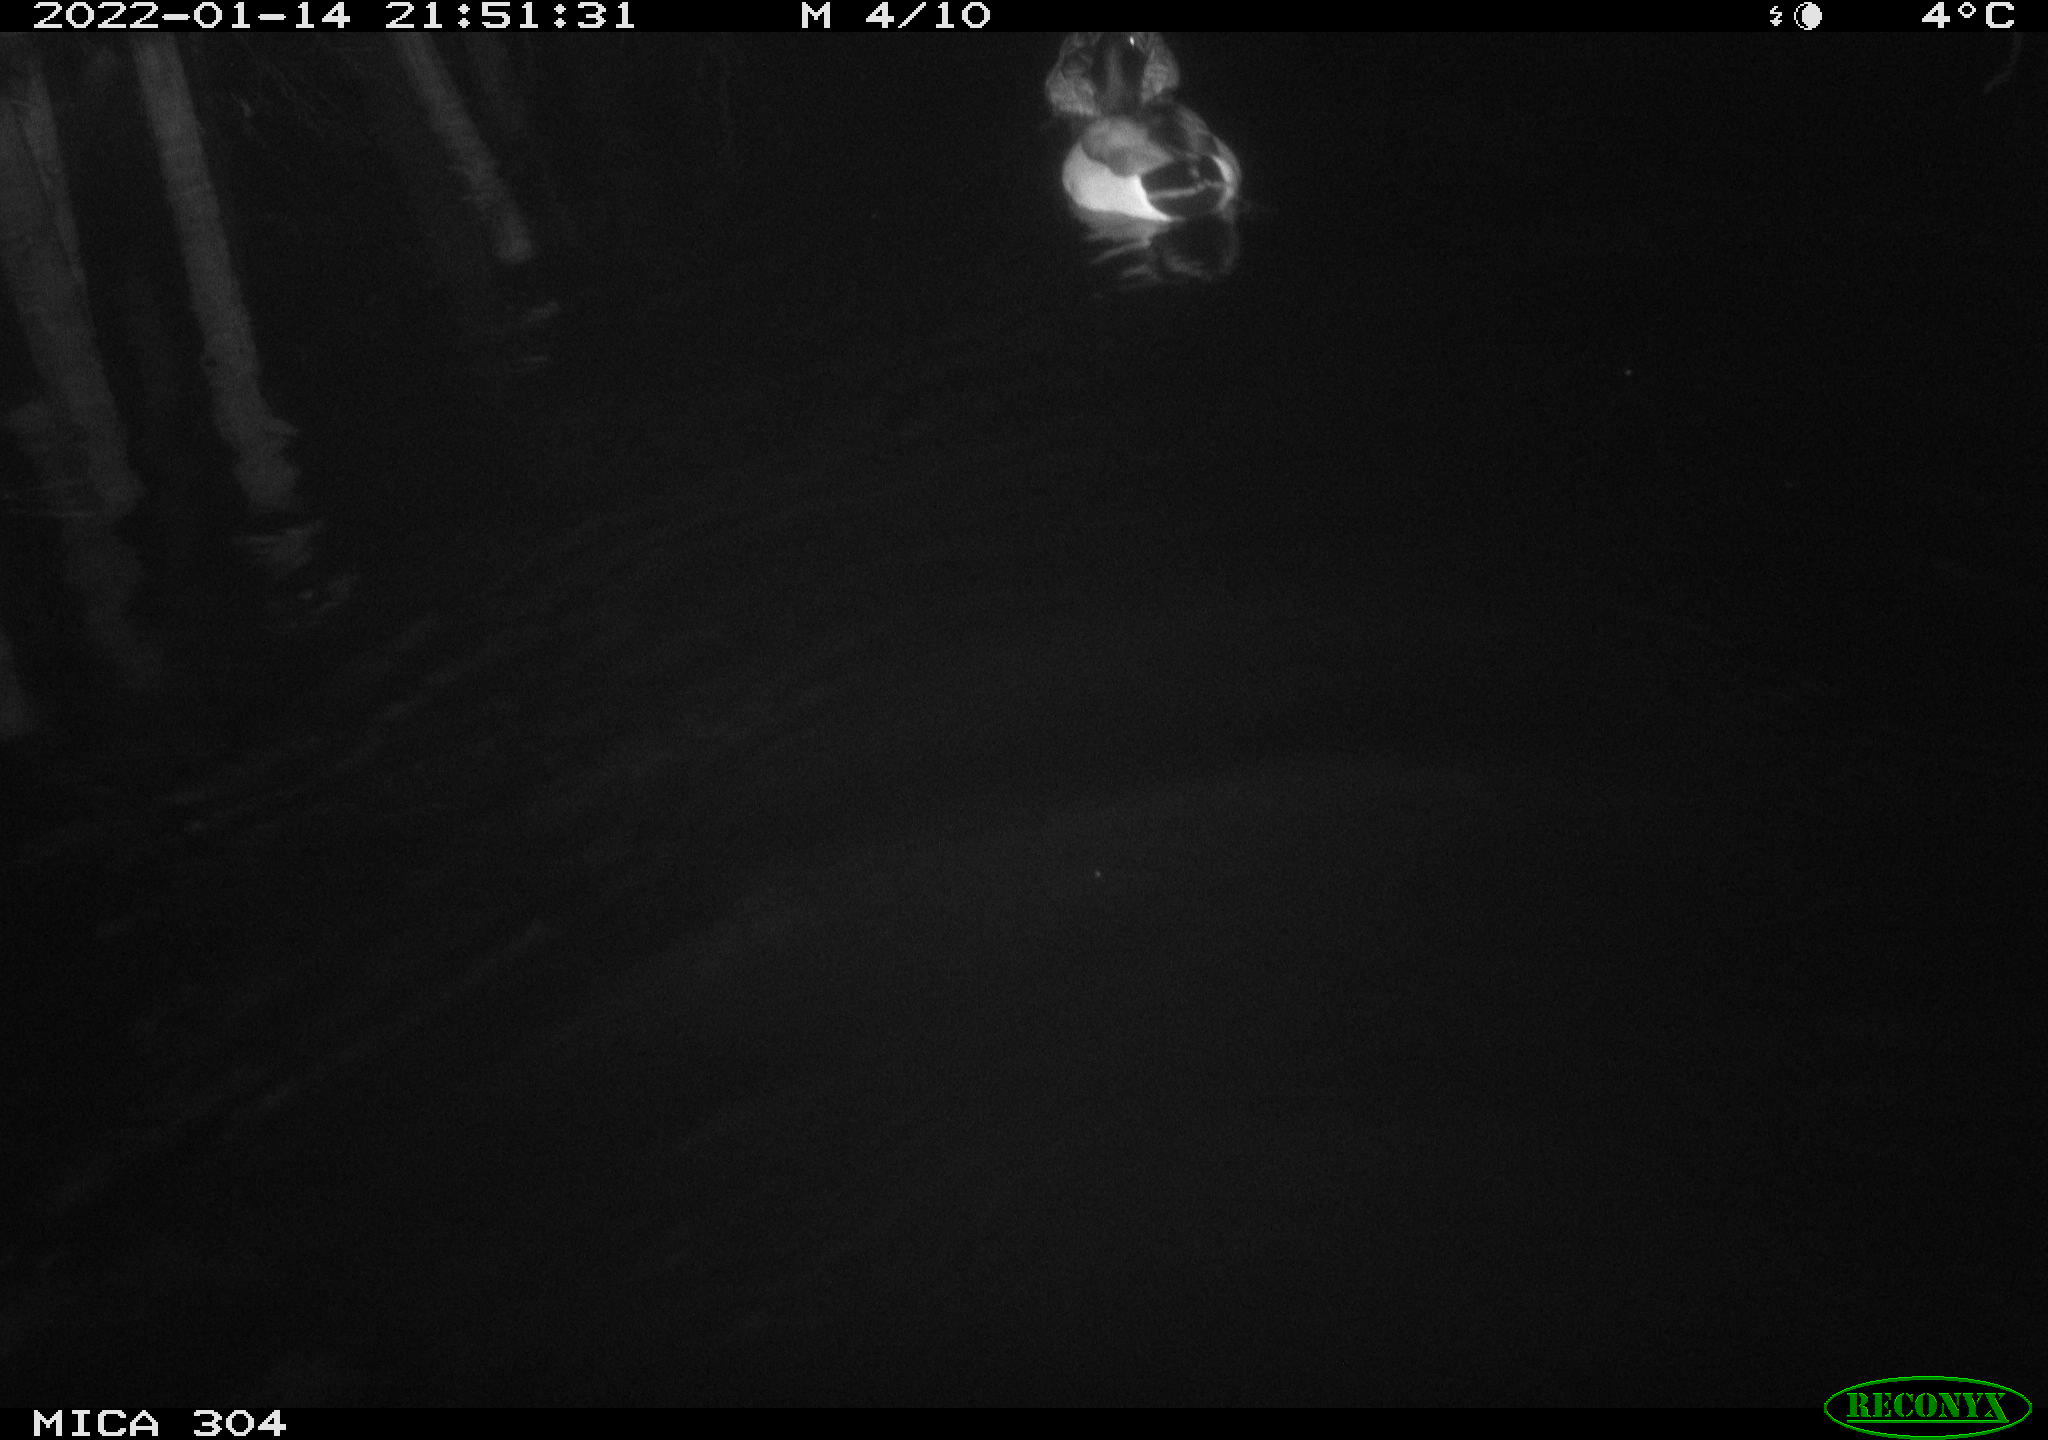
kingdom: Animalia
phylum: Chordata
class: Aves
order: Anseriformes
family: Anatidae
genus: Anas
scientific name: Anas
